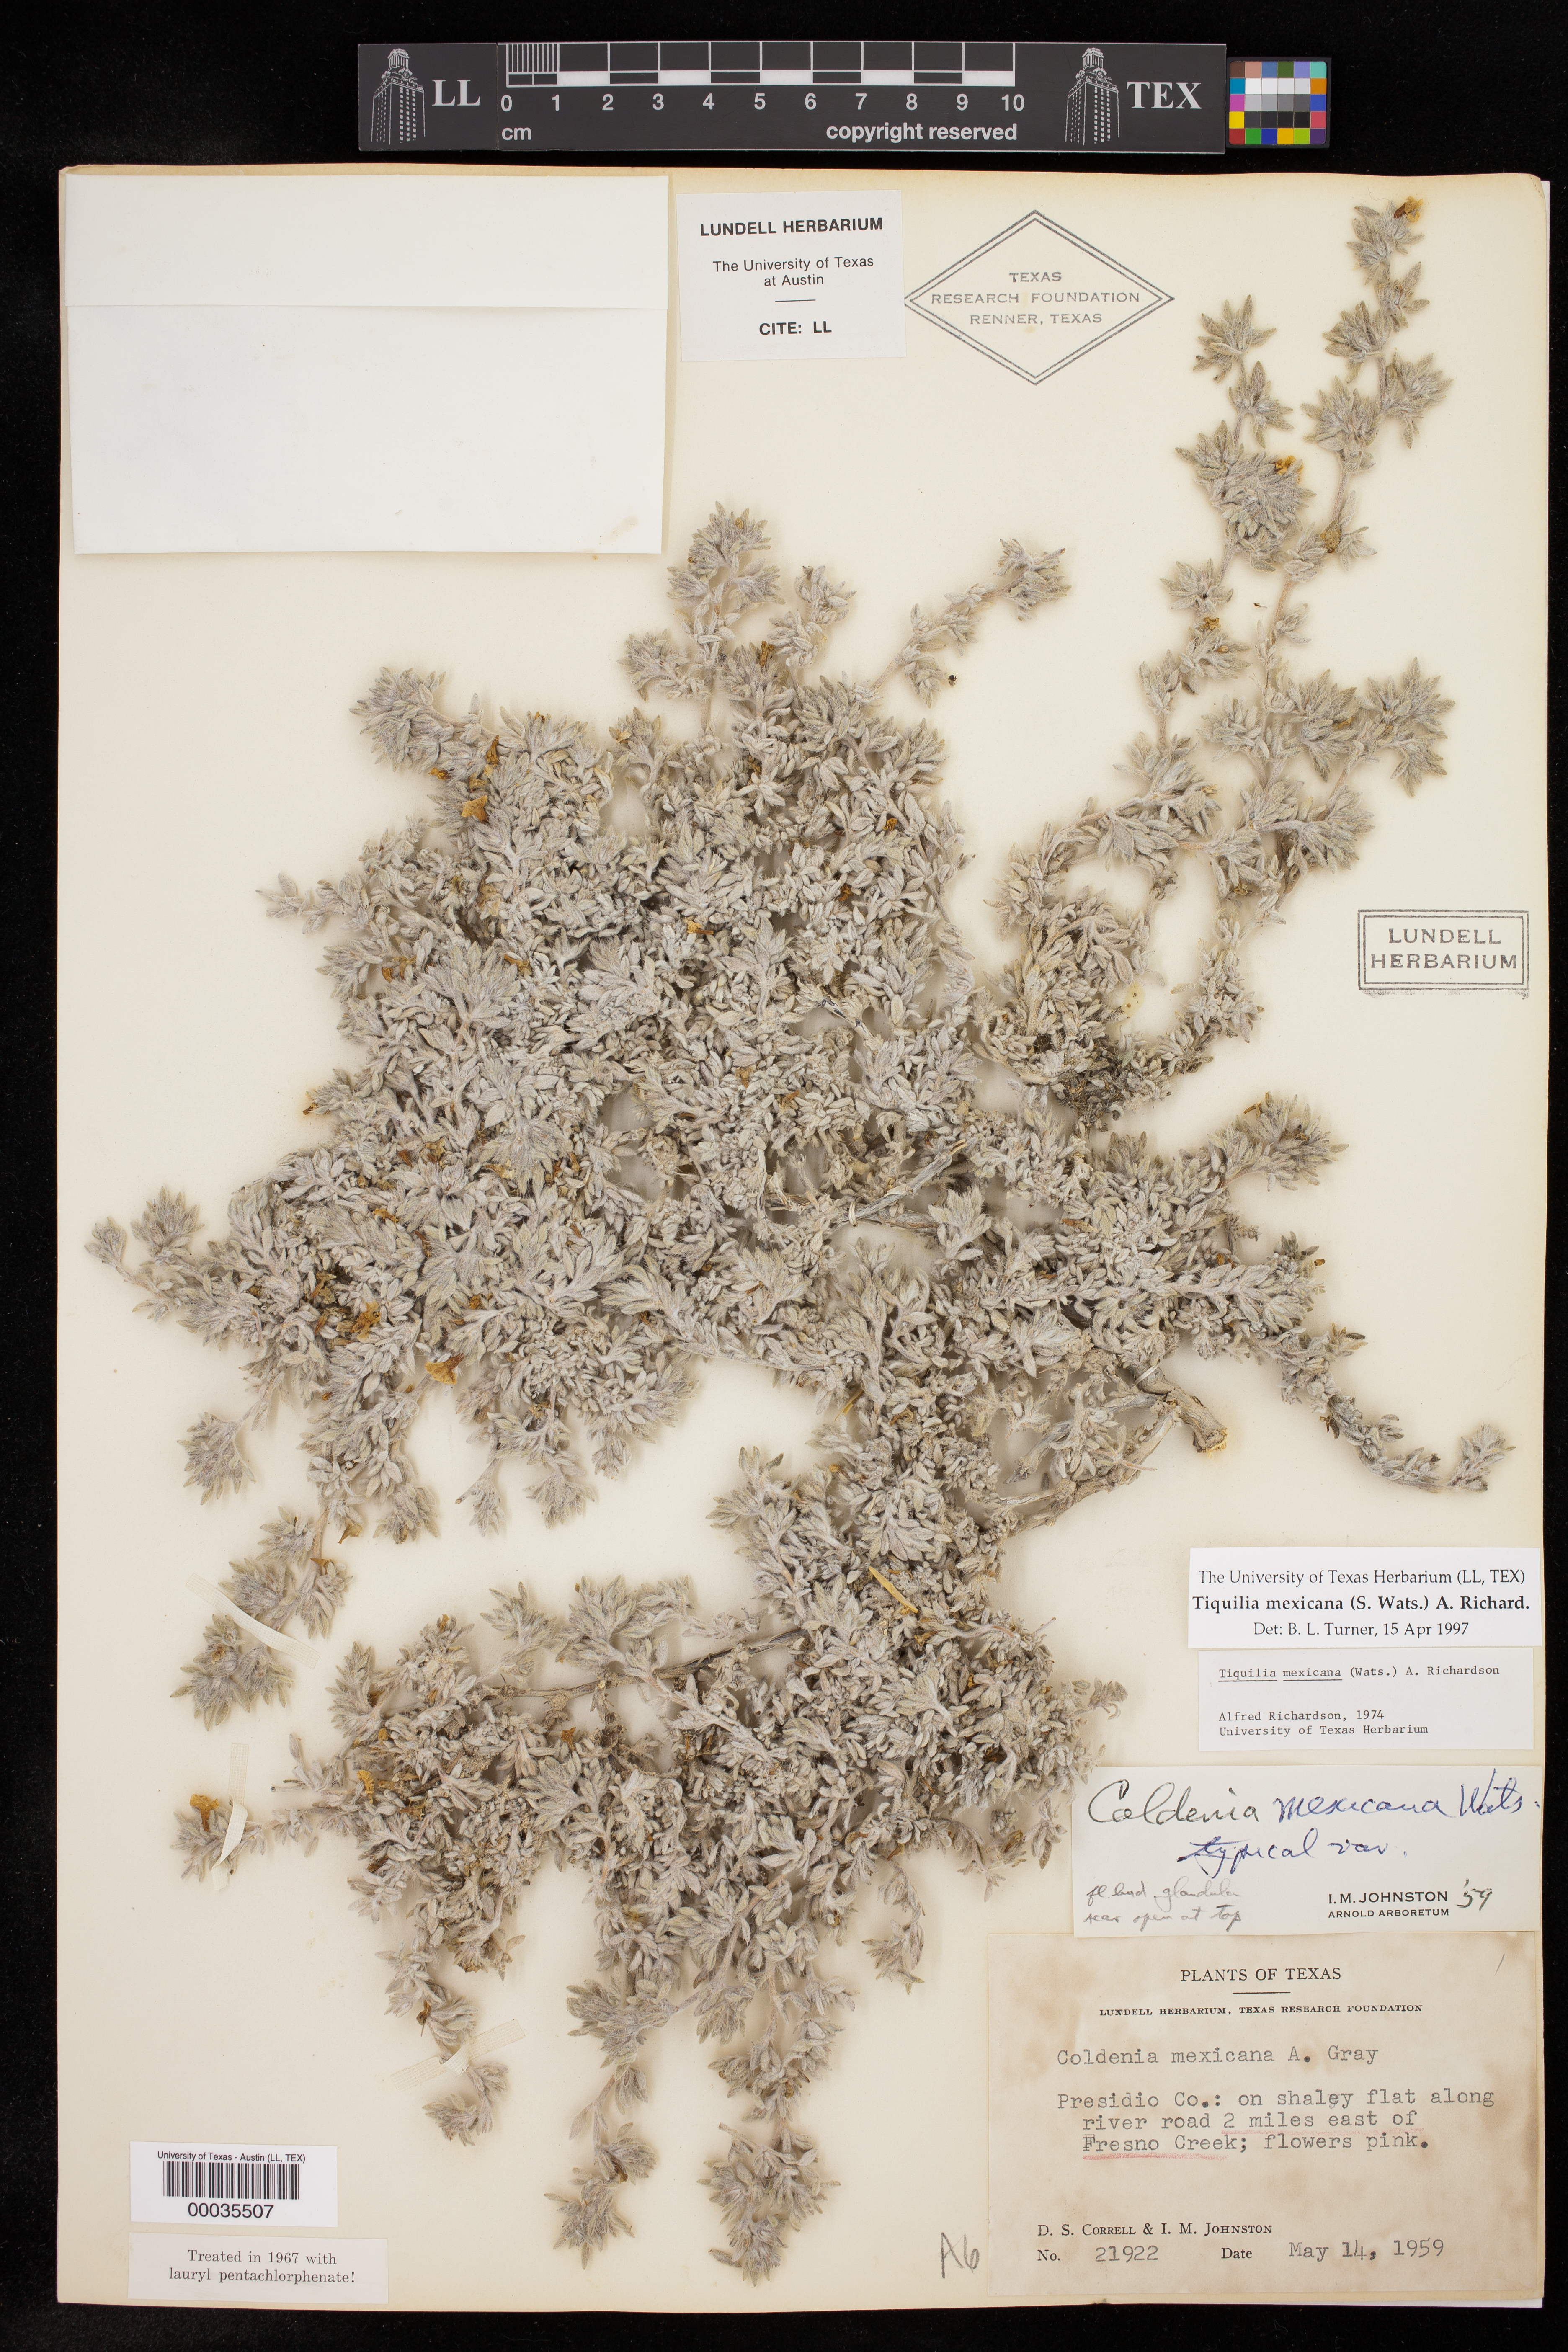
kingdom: Plantae
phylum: Tracheophyta
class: Magnoliopsida
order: Boraginales
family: Ehretiaceae
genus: Tiquilia
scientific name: Tiquilia mexicana
